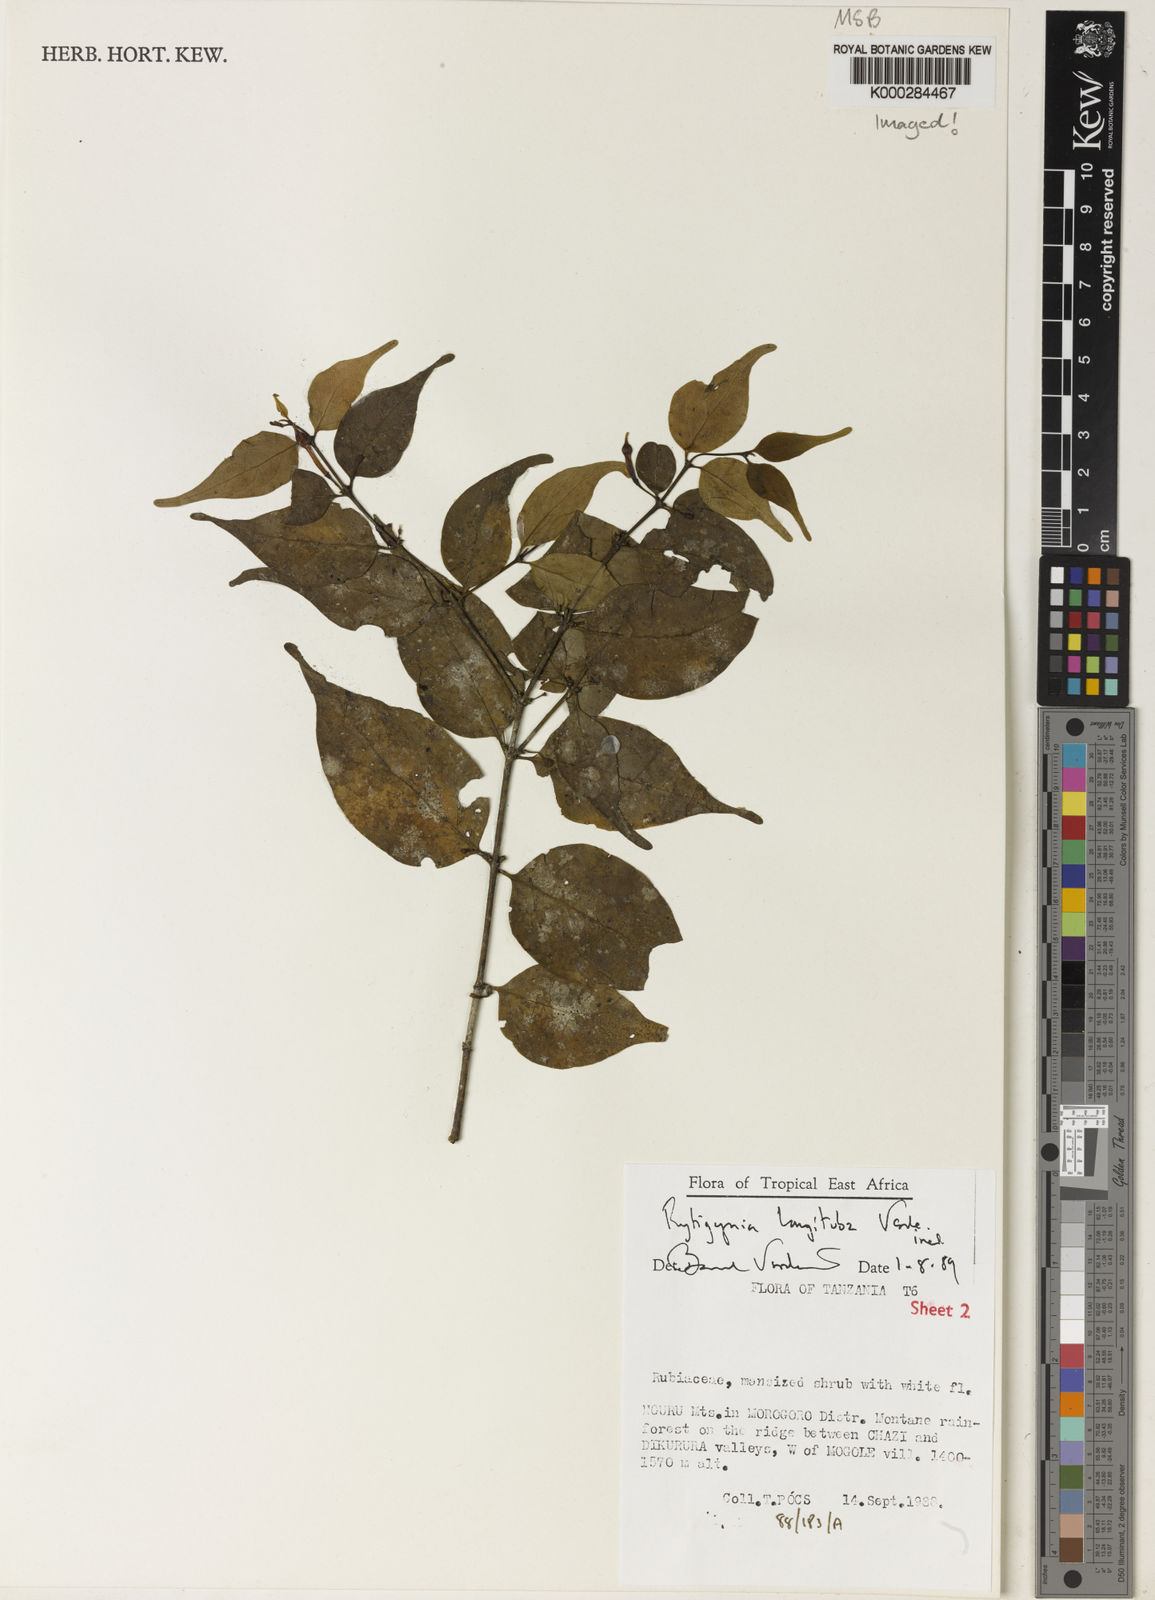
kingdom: Plantae
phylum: Tracheophyta
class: Magnoliopsida
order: Gentianales
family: Rubiaceae
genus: Rytigynia
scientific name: Rytigynia longituba
